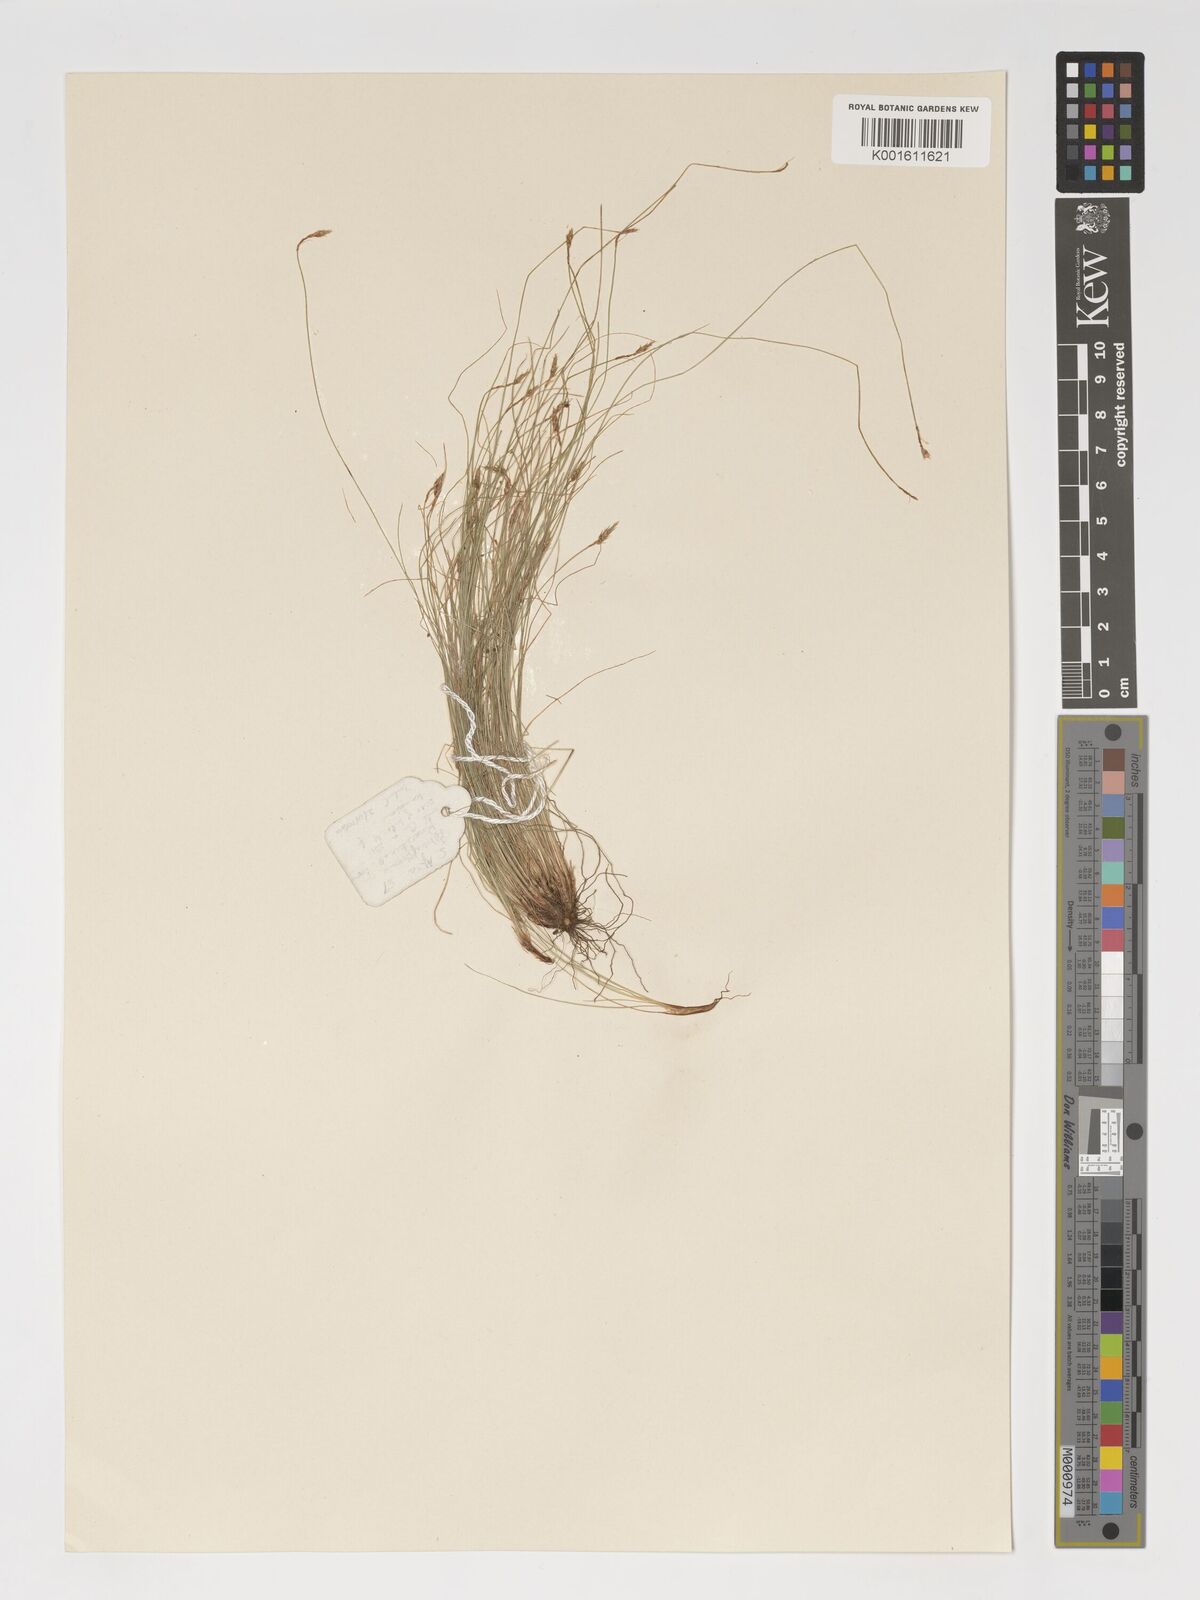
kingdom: Plantae
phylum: Tracheophyta
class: Liliopsida
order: Poales
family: Cyperaceae
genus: Bulbostylis
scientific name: Bulbostylis humilis
